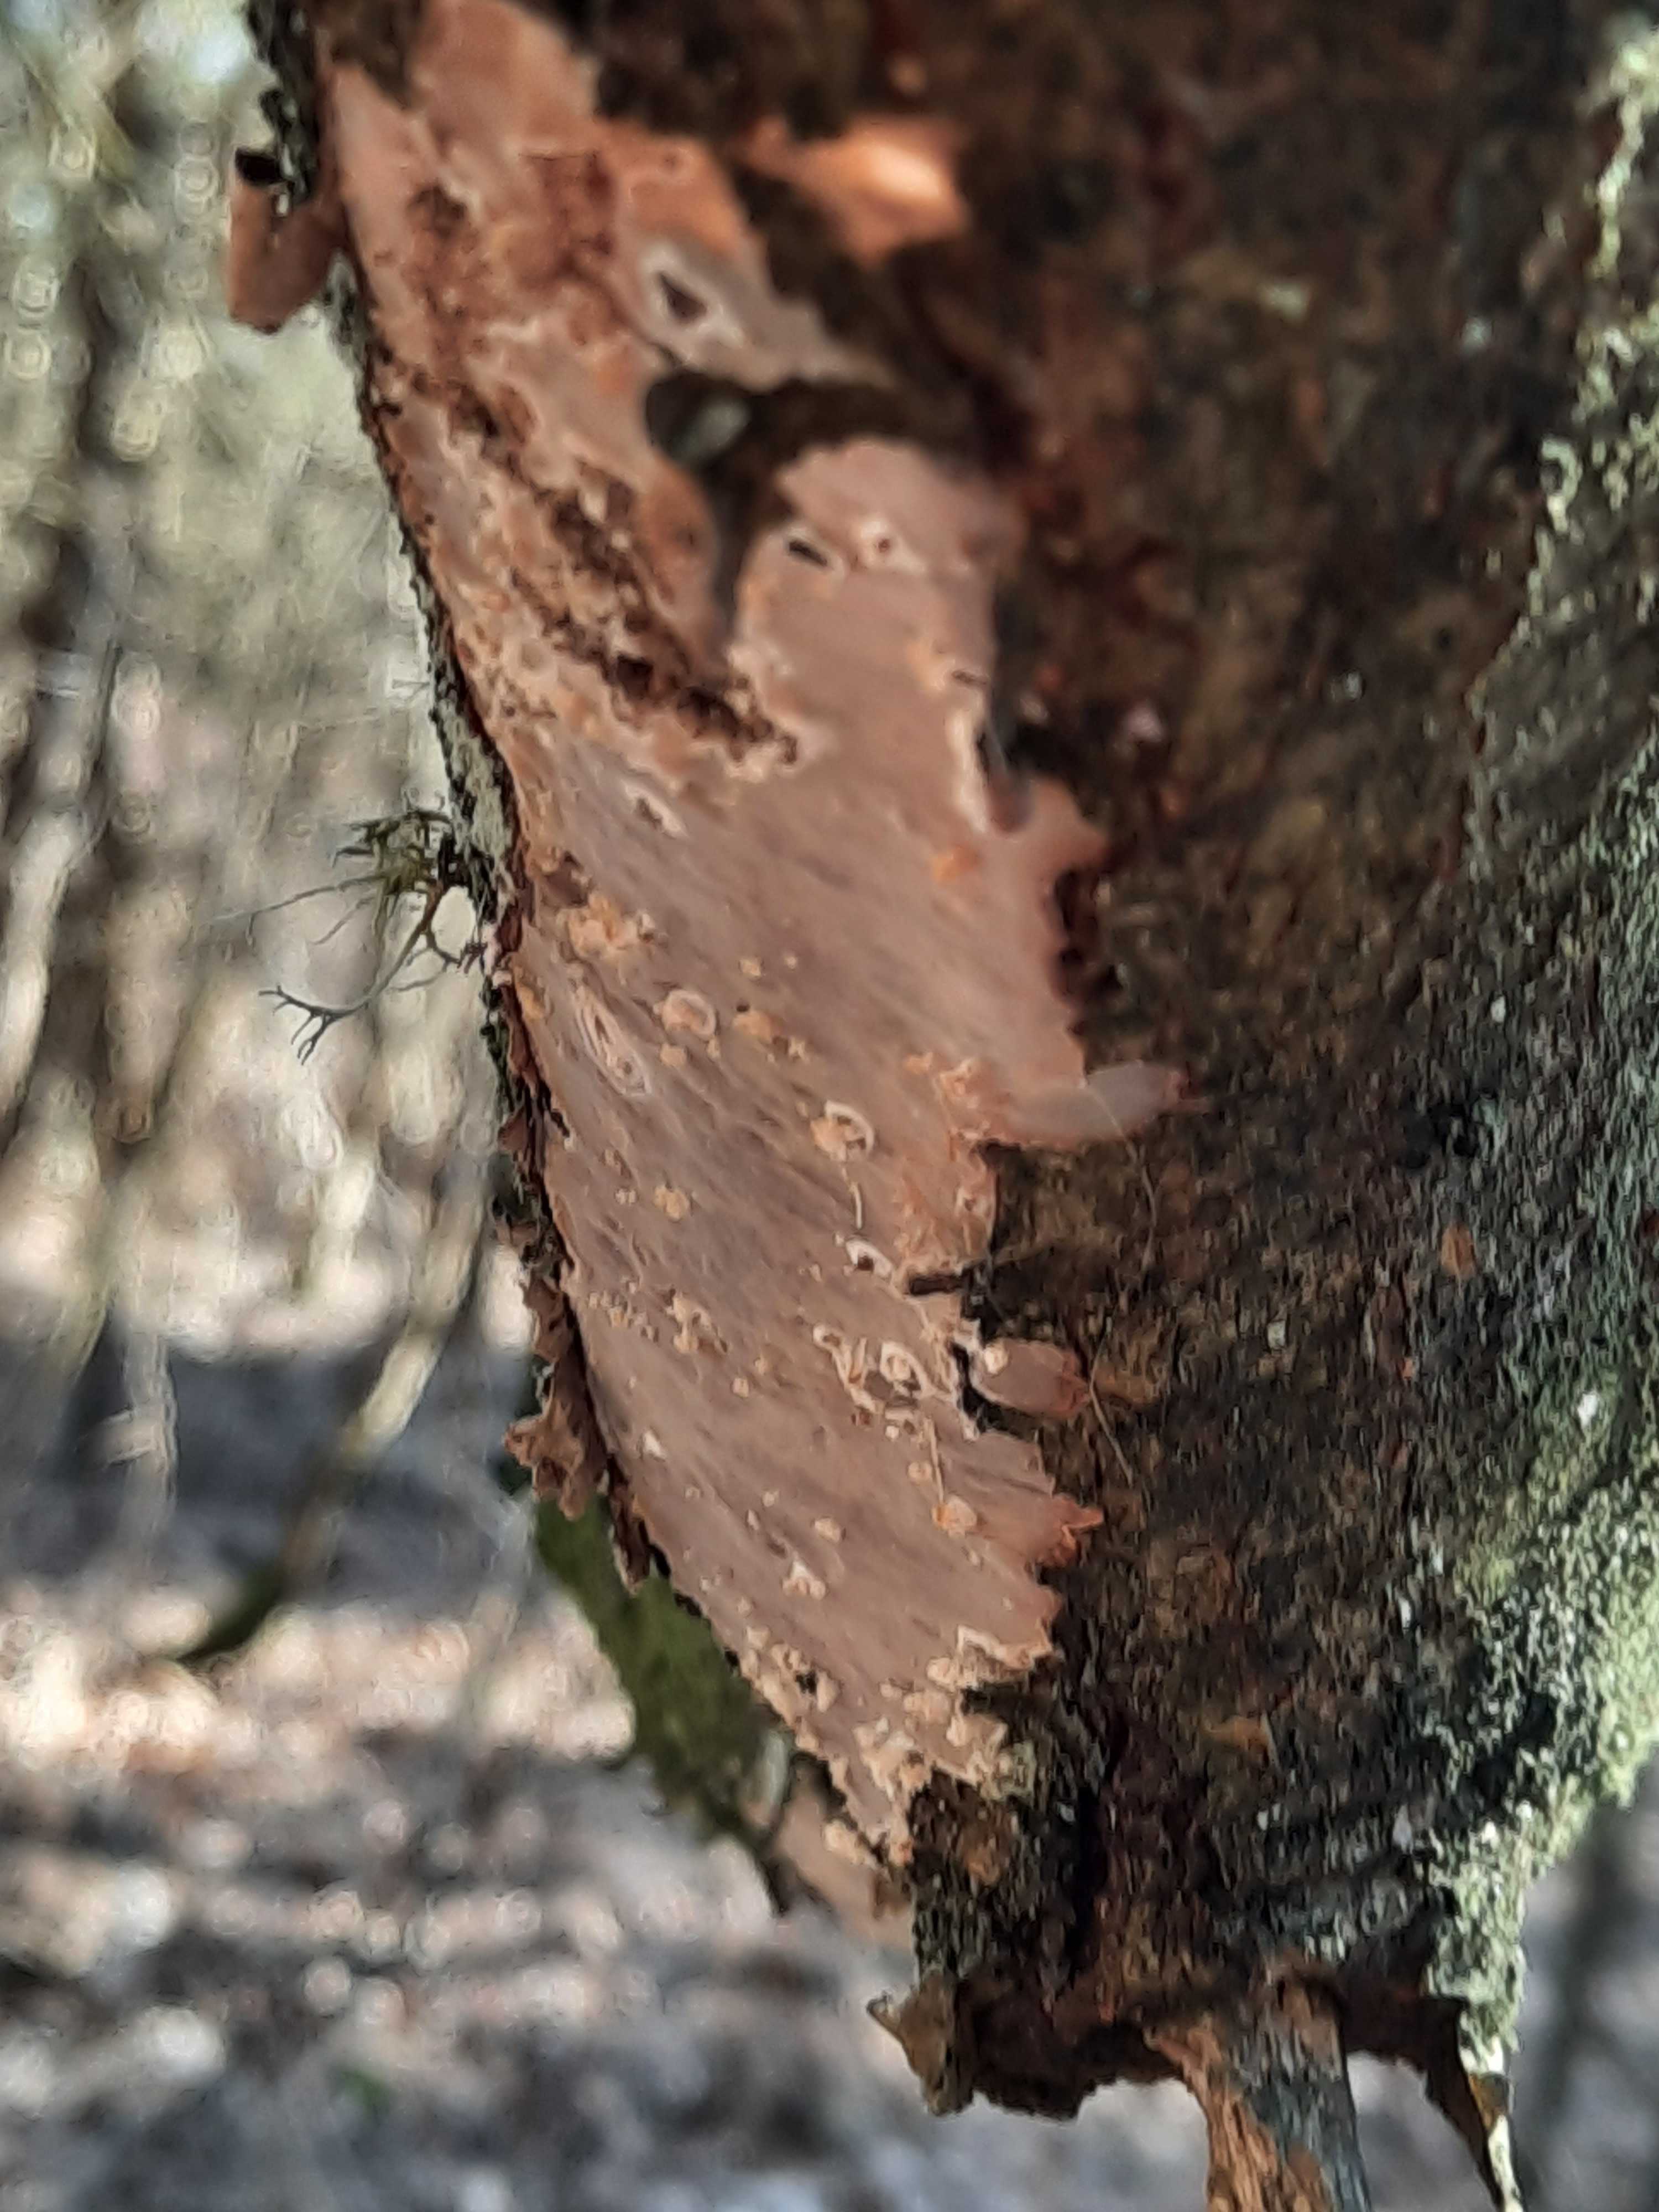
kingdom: Fungi
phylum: Basidiomycota
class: Agaricomycetes
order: Corticiales
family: Vuilleminiaceae
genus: Vuilleminia
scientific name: Vuilleminia comedens
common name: almindelig barksprænger
